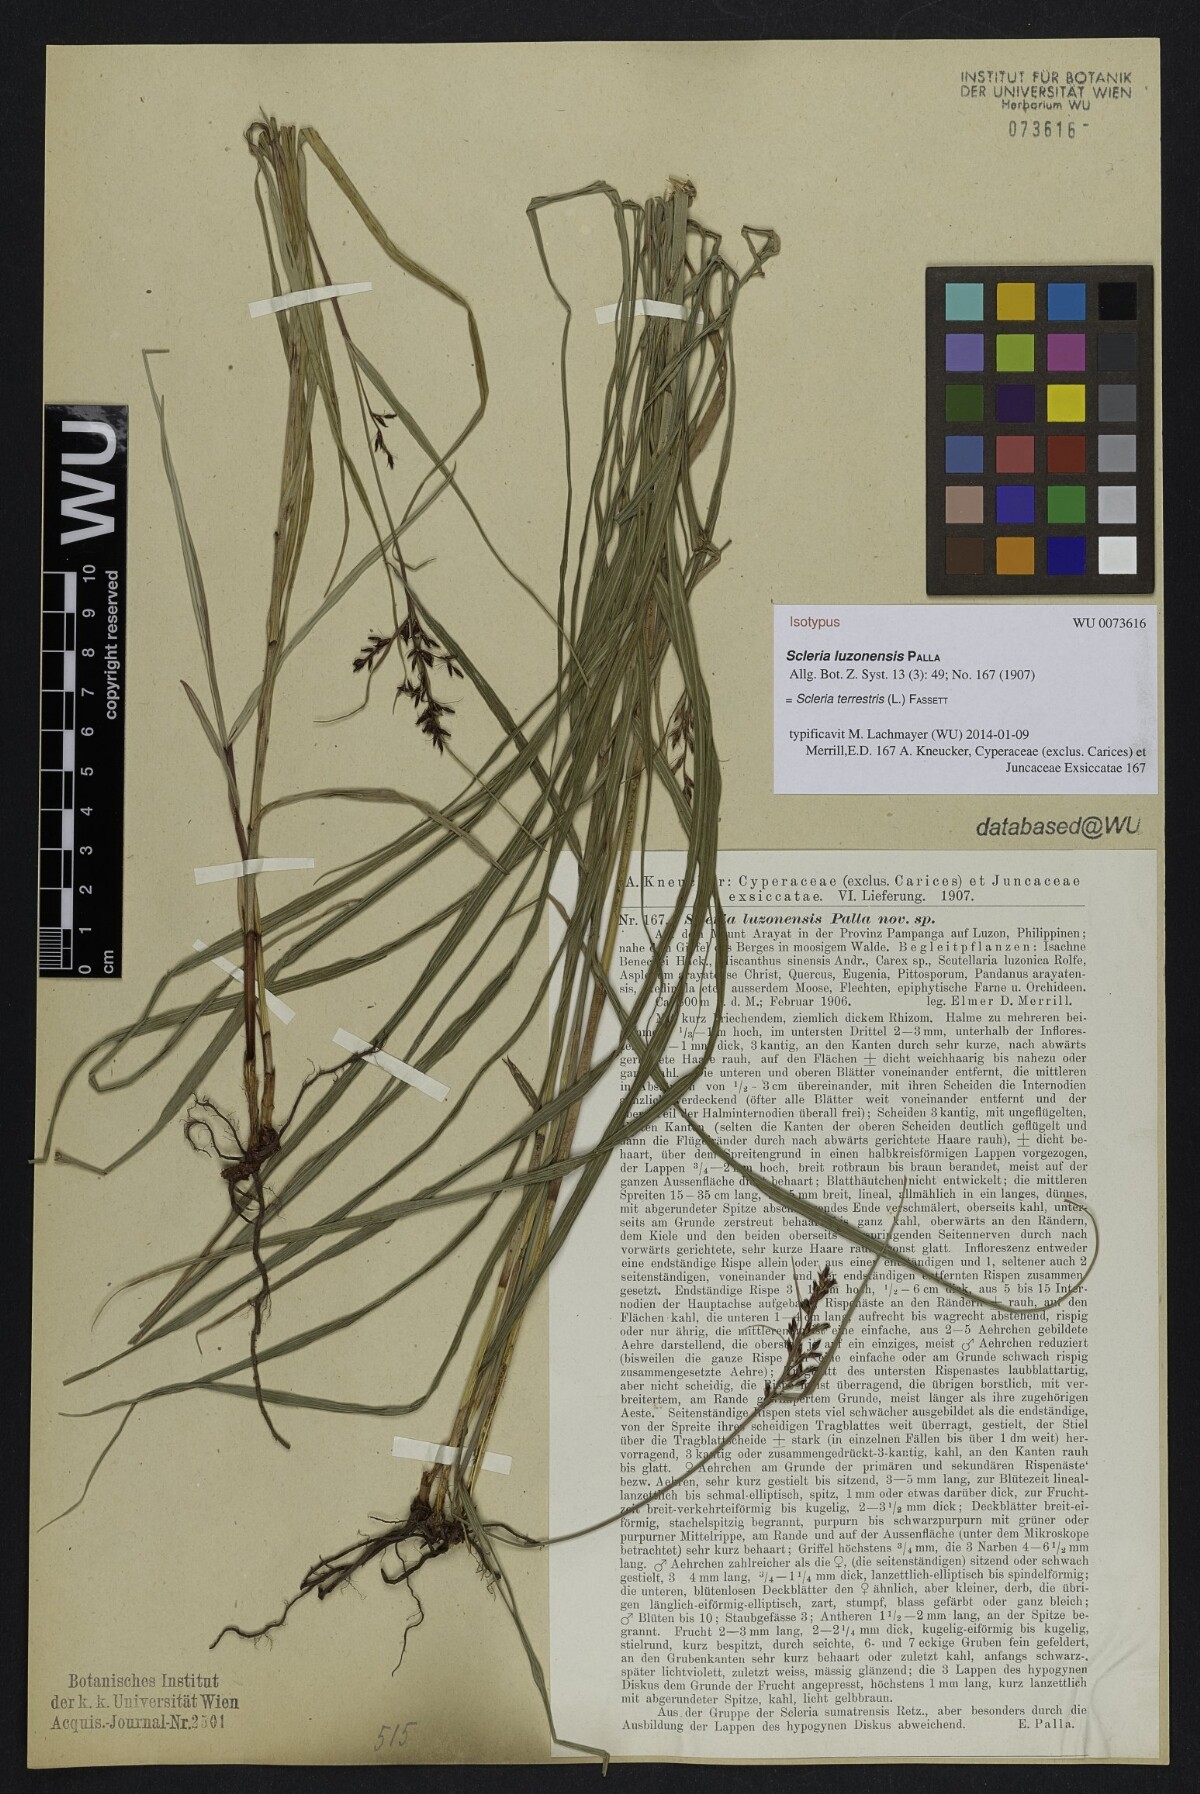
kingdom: Plantae
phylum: Tracheophyta
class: Liliopsida
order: Poales
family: Cyperaceae
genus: Scleria
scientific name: Scleria terrestris
